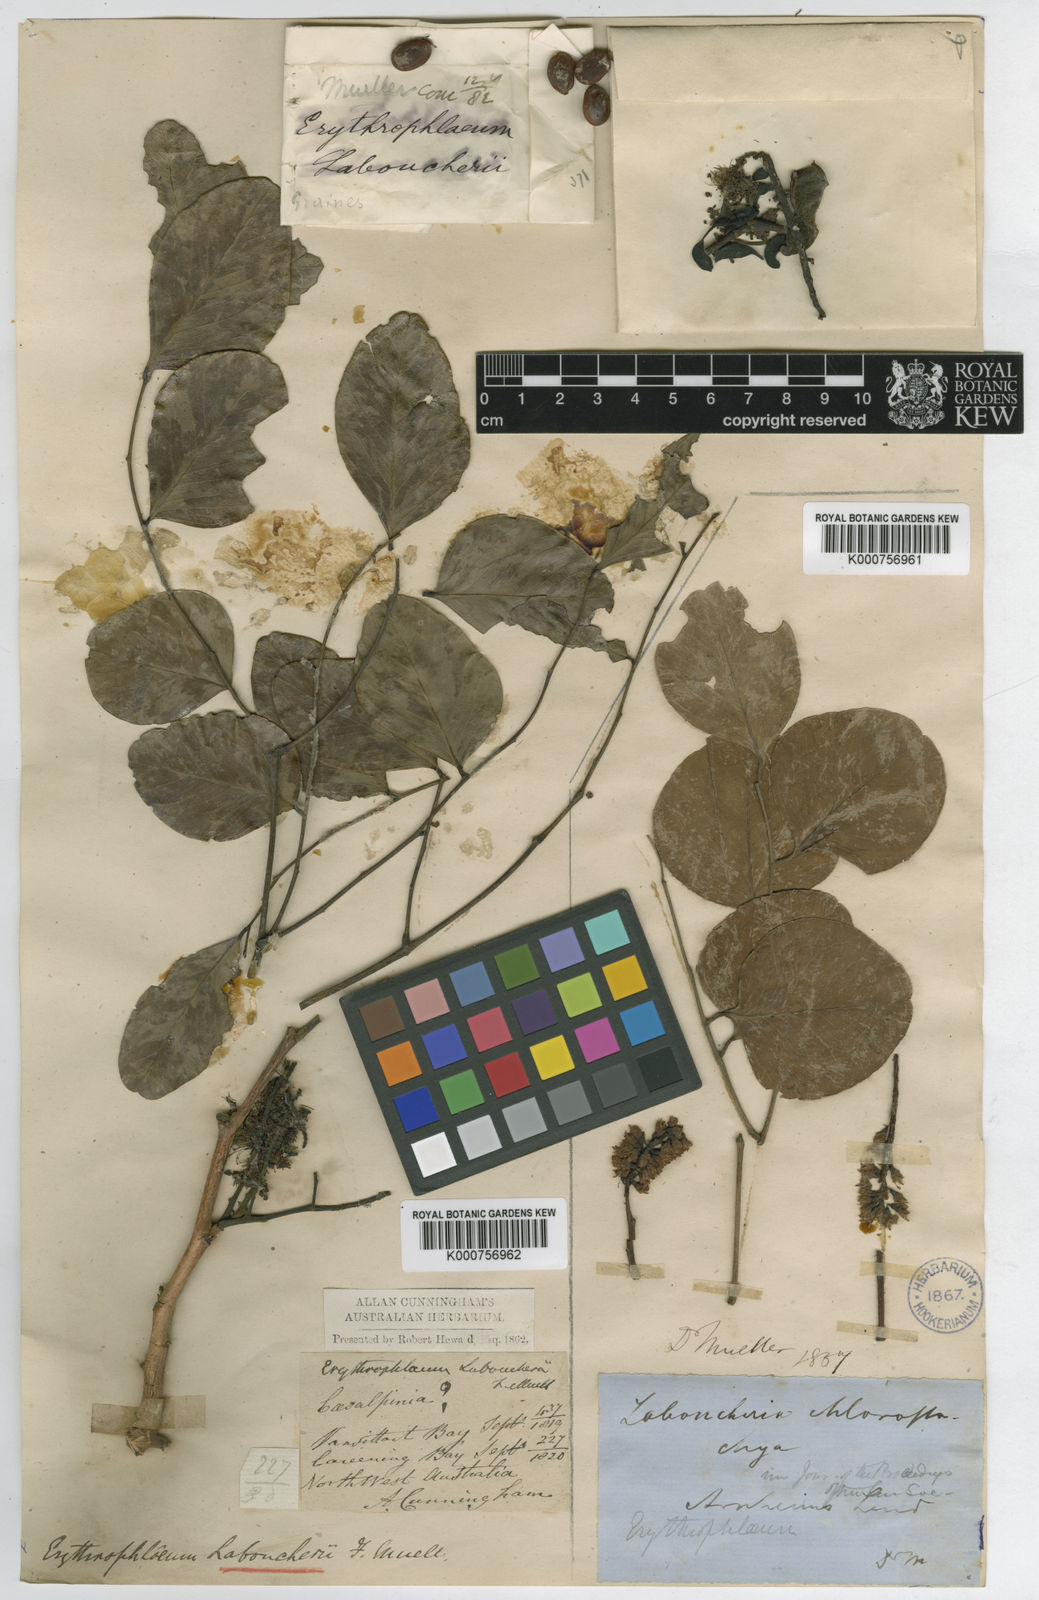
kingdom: Plantae
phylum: Tracheophyta
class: Magnoliopsida
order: Fabales
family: Fabaceae
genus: Erythrophleum
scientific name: Erythrophleum chlorostachys
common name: Black-bean
